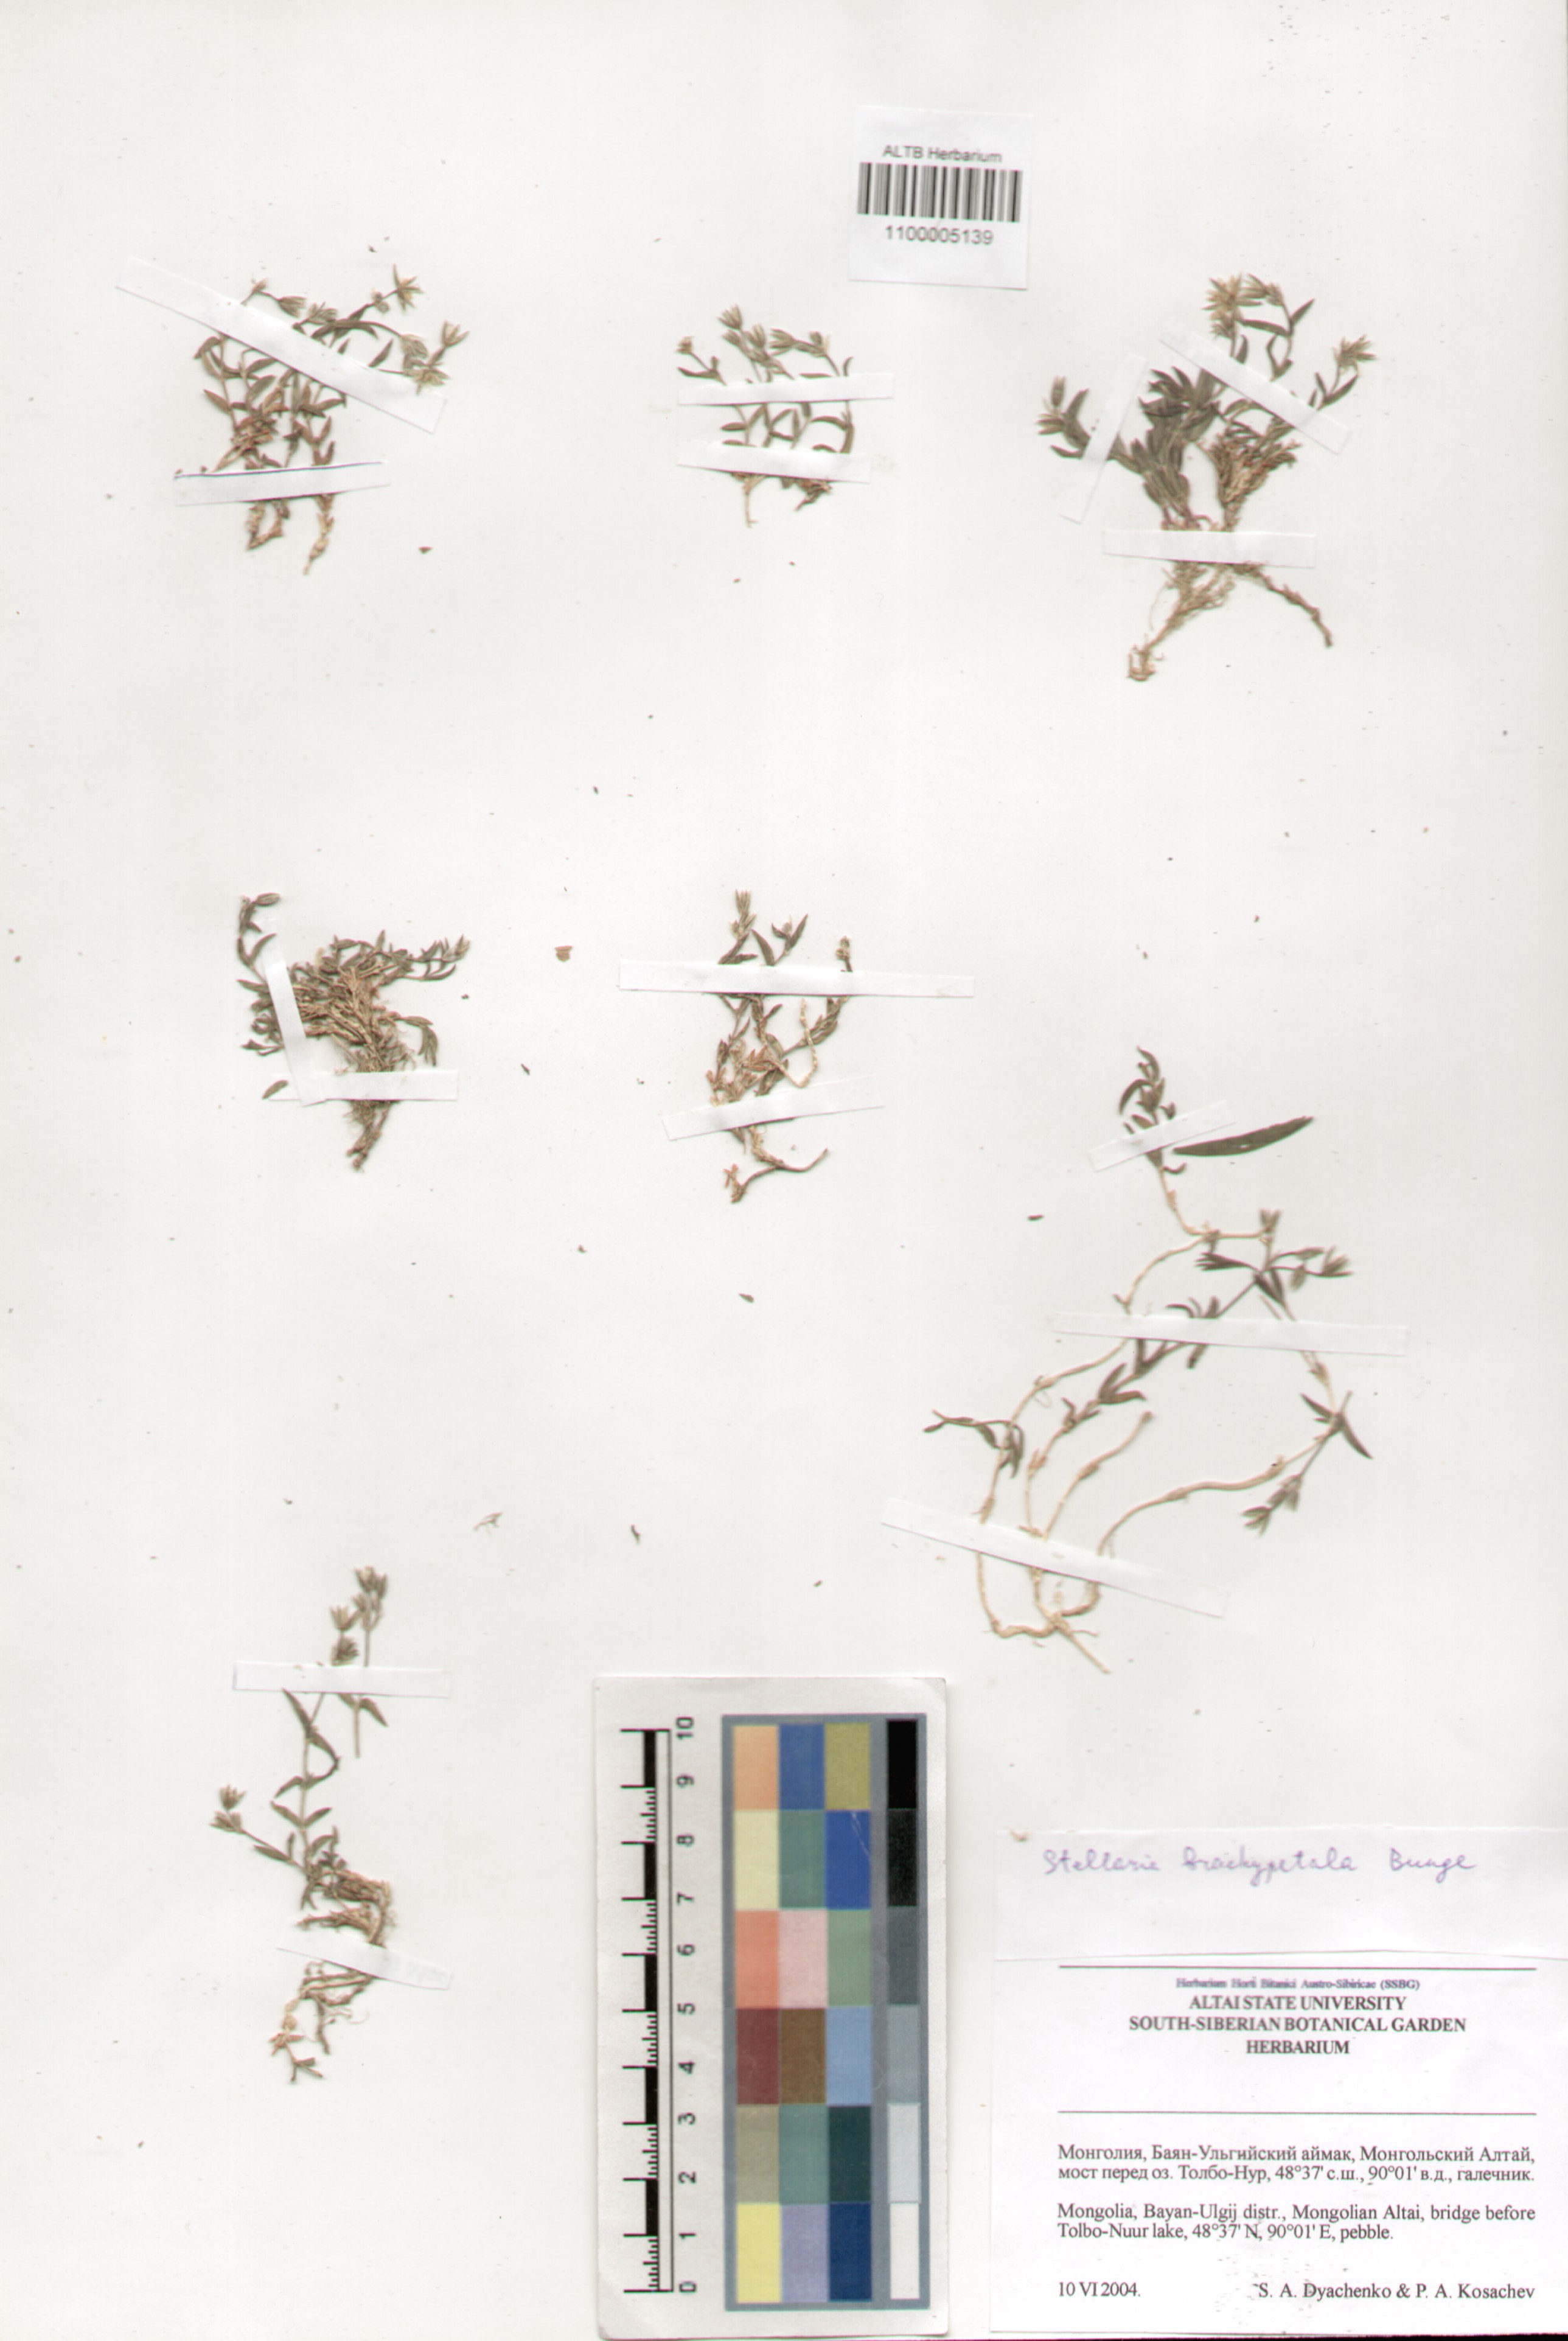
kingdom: Plantae
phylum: Tracheophyta
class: Magnoliopsida
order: Caryophyllales
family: Caryophyllaceae
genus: Stellaria
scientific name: Stellaria brachypetala
